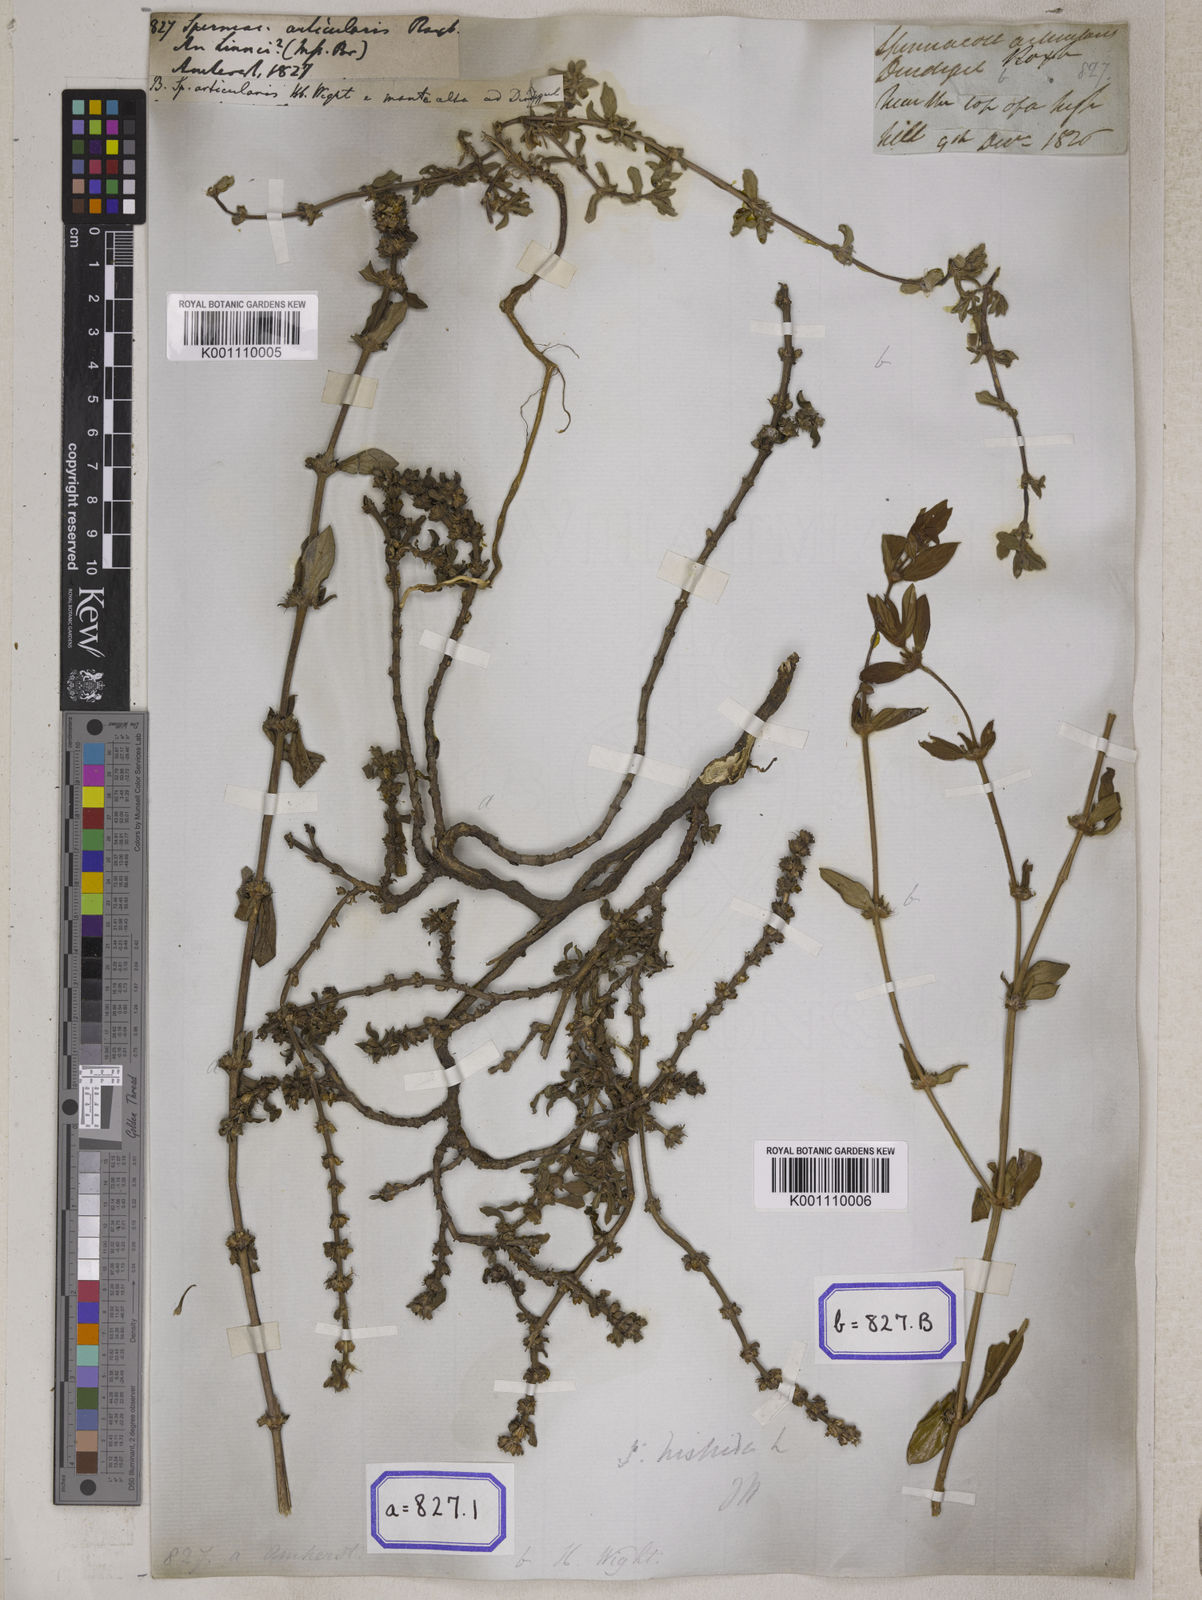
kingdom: Plantae
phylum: Tracheophyta
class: Magnoliopsida
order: Gentianales
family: Rubiaceae
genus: Spermacoce
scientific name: Spermacoce
